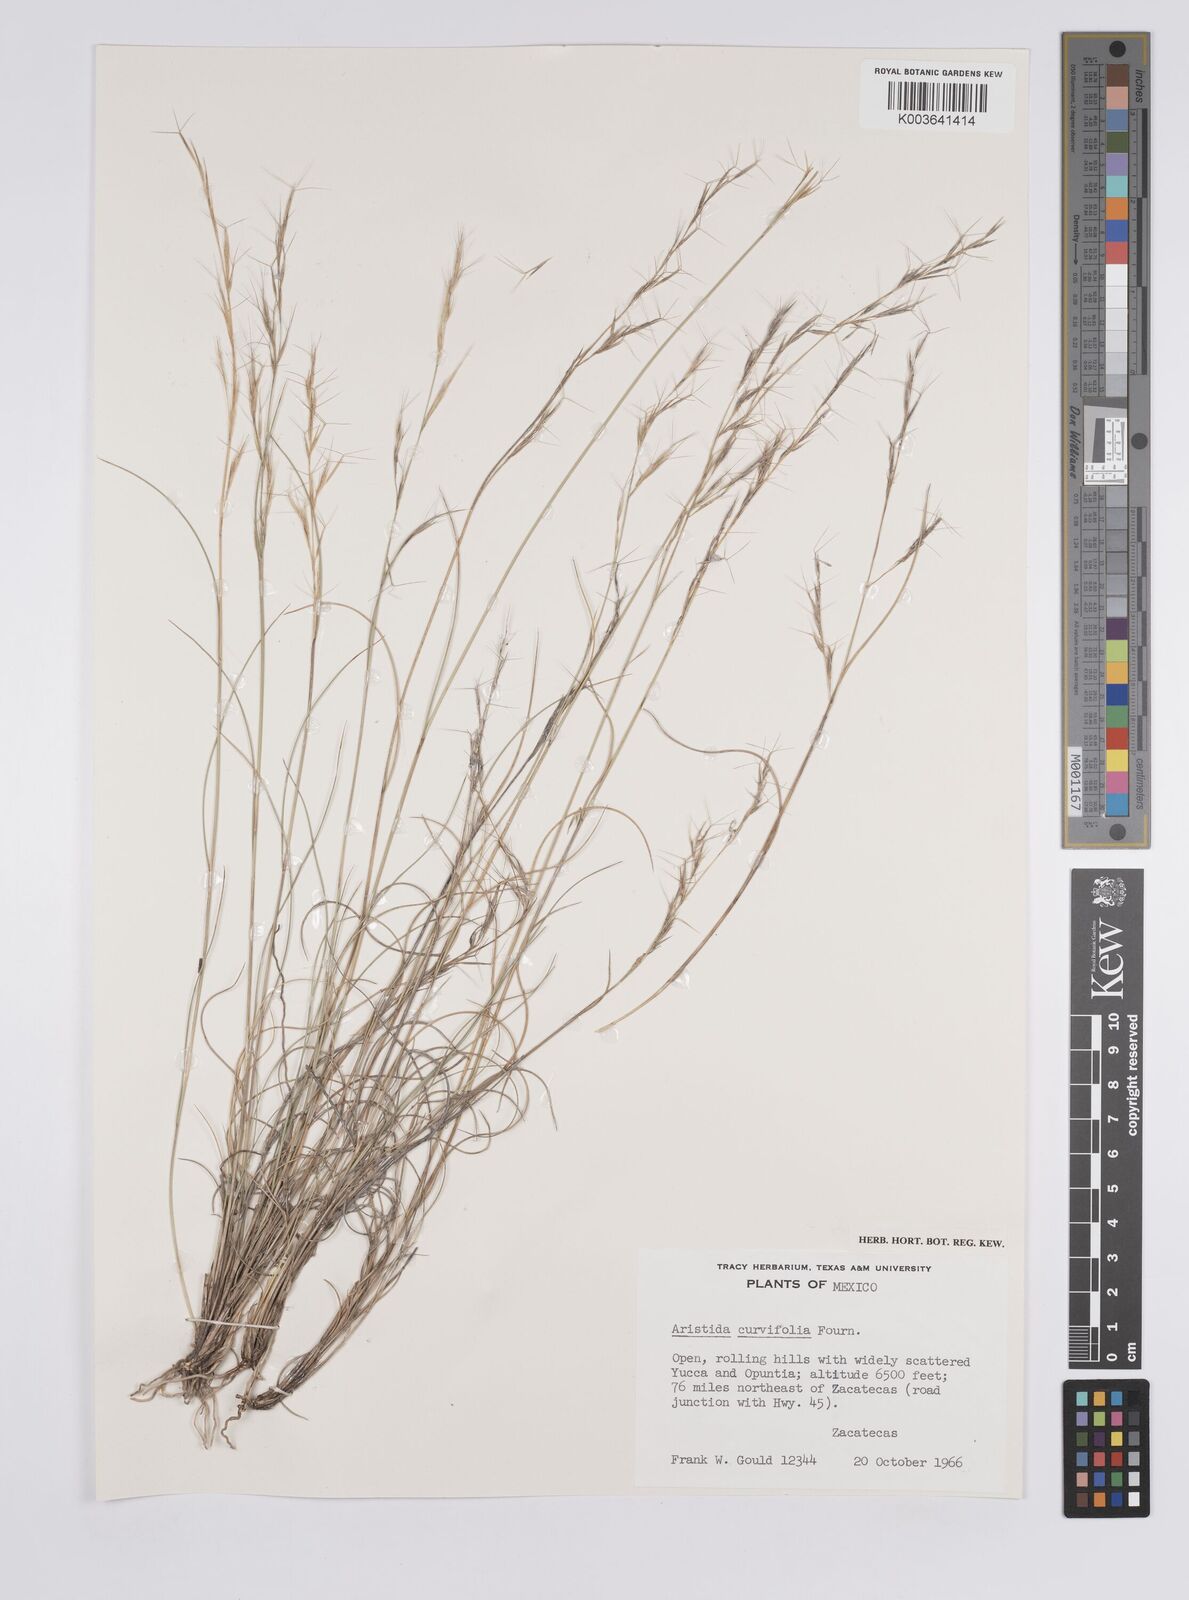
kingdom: Plantae
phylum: Tracheophyta
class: Liliopsida
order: Poales
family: Poaceae
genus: Aristida
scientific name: Aristida purpurea
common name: Purple threeawn
